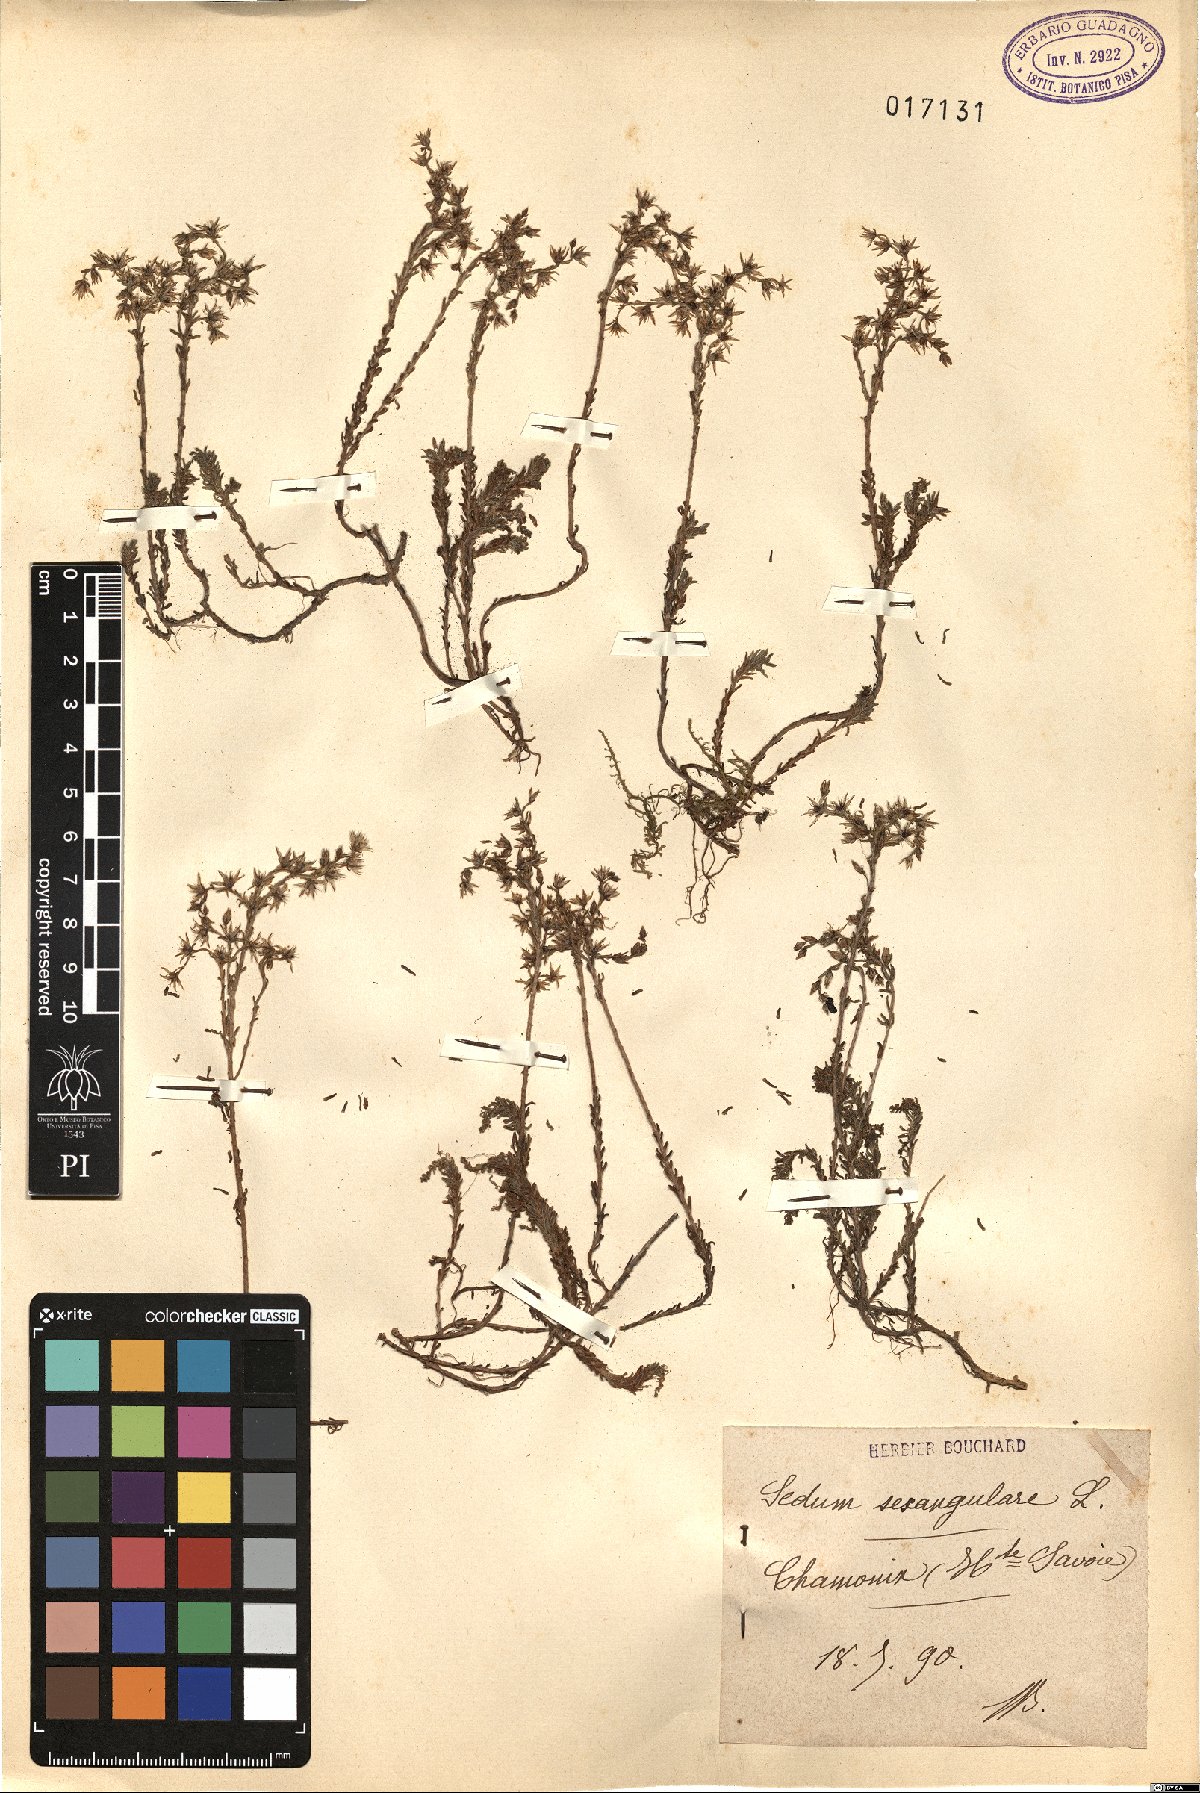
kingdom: Plantae
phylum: Tracheophyta
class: Magnoliopsida
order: Saxifragales
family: Crassulaceae
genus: Sedum
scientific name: Sedum sexangulare
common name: Tasteless stonecrop
